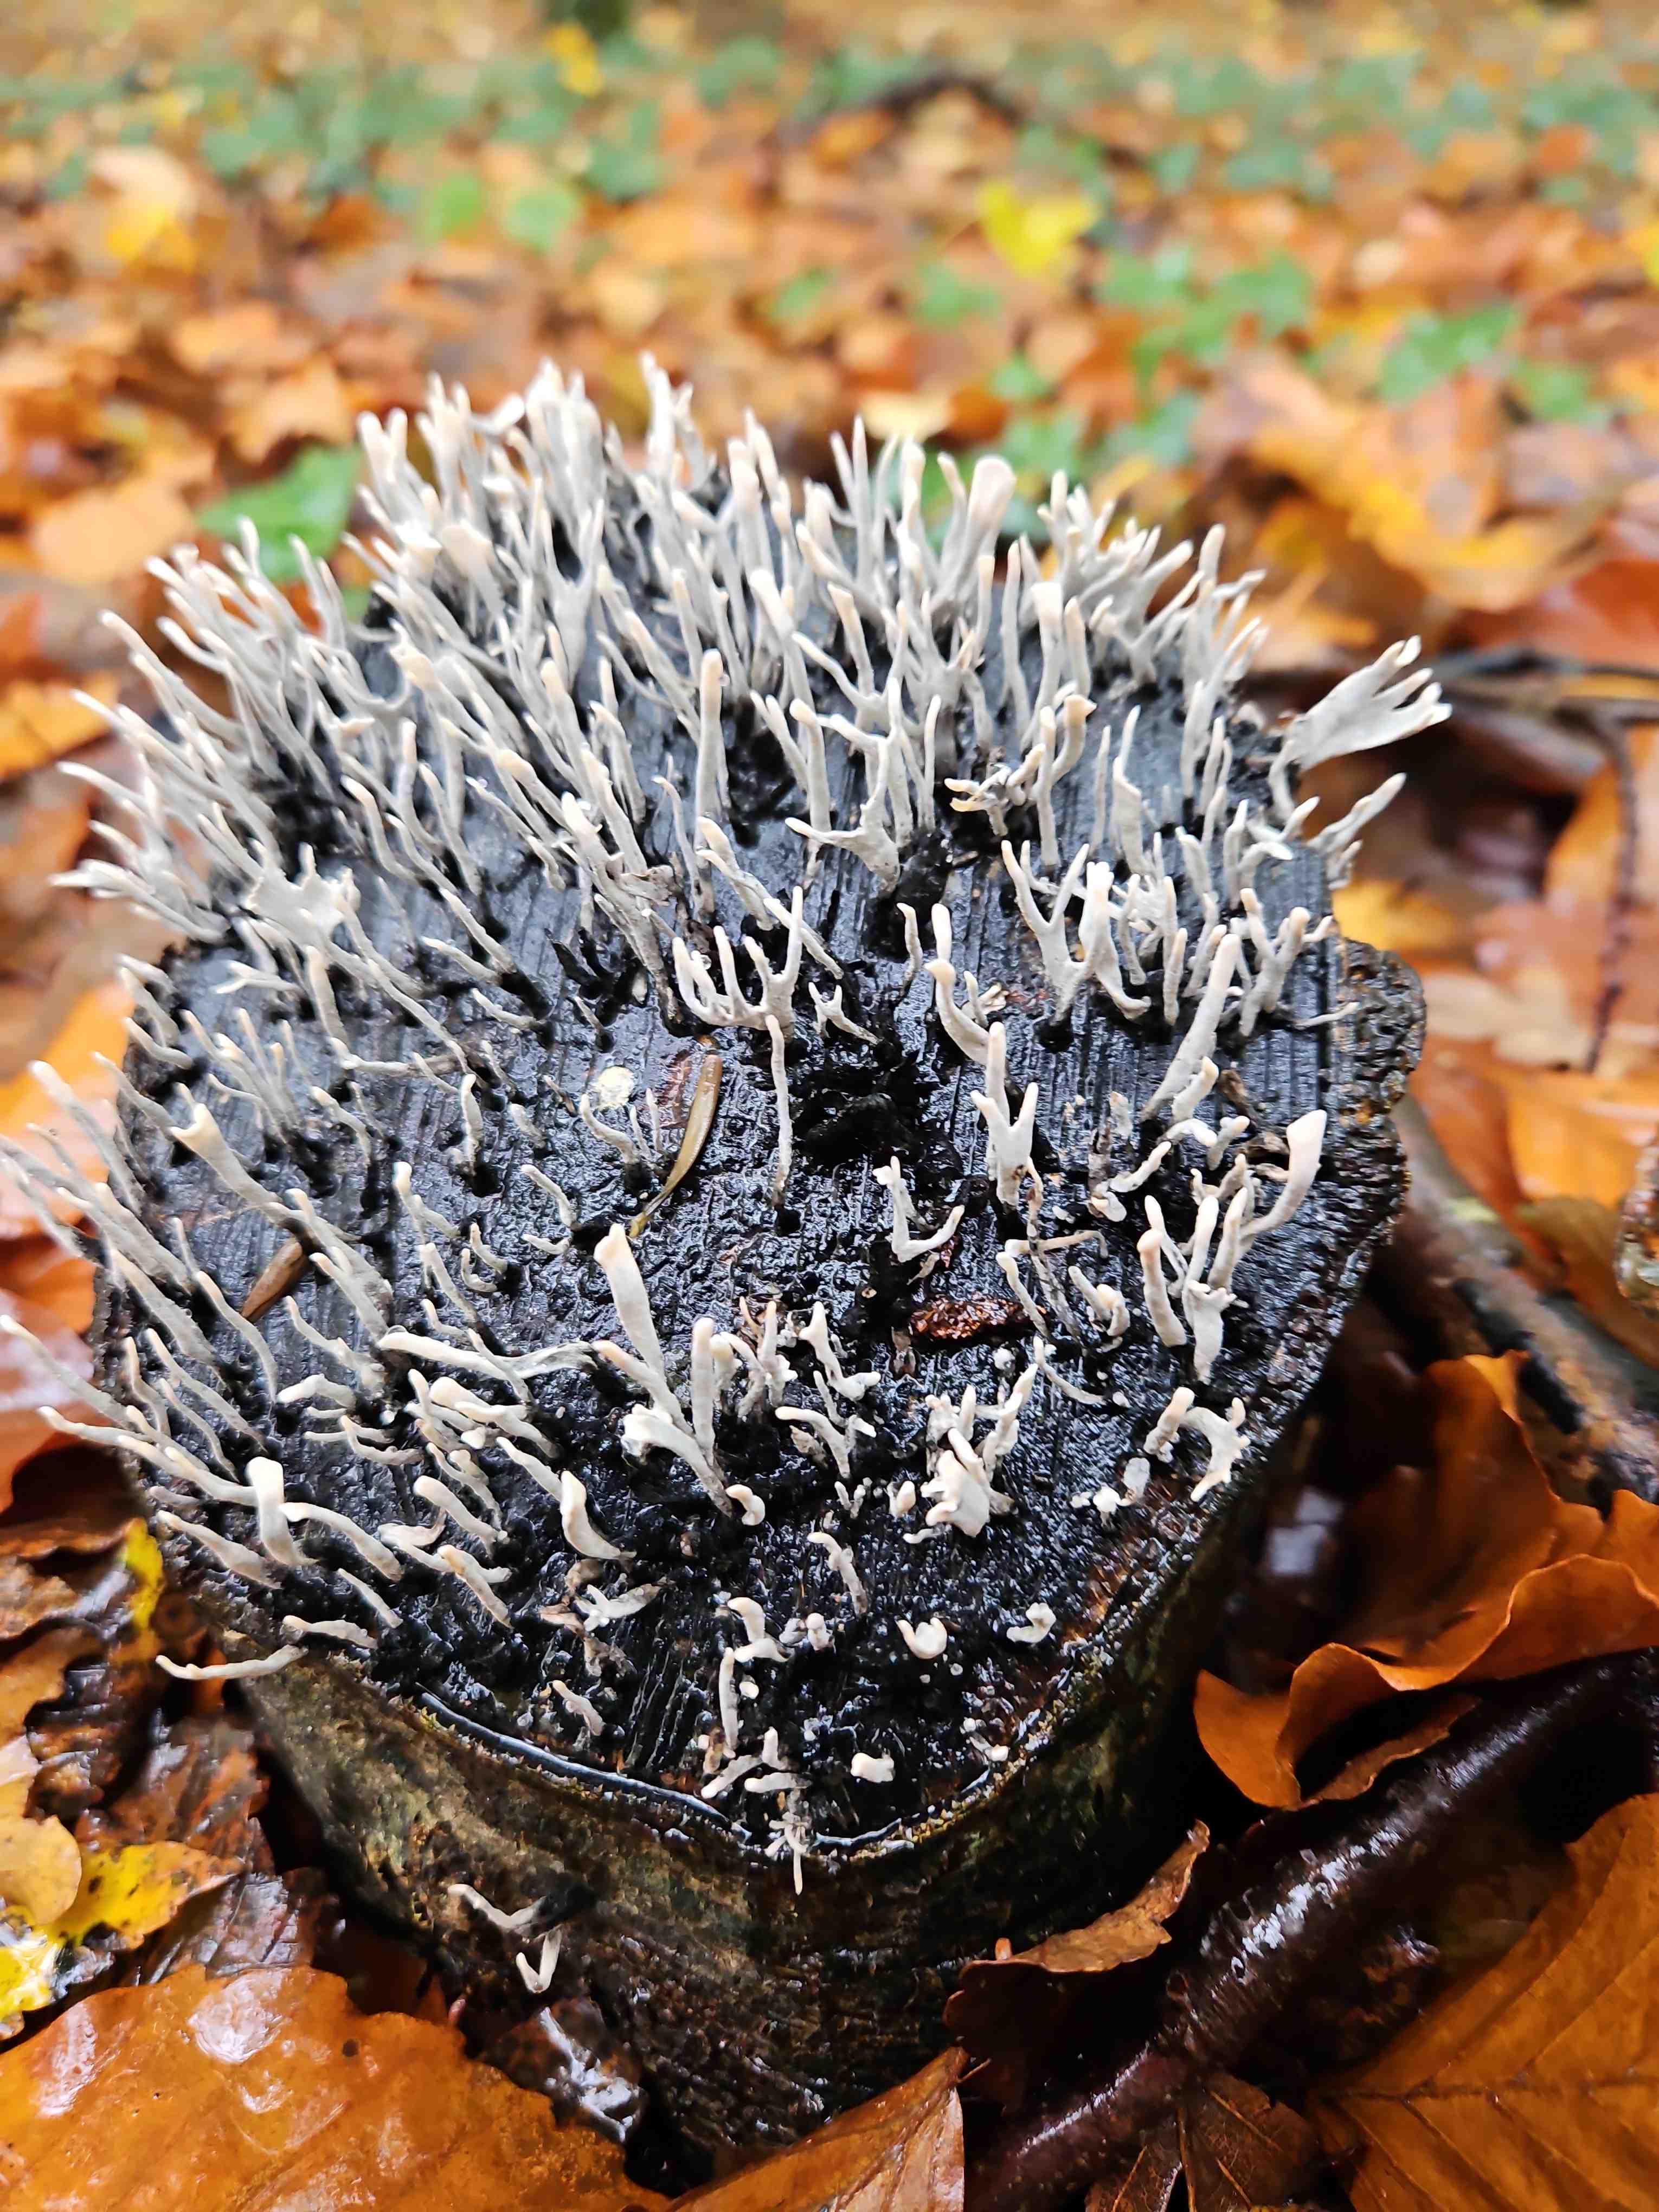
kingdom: Fungi
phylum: Ascomycota
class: Sordariomycetes
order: Xylariales
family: Xylariaceae
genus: Xylaria
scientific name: Xylaria hypoxylon
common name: grenet stødsvamp
